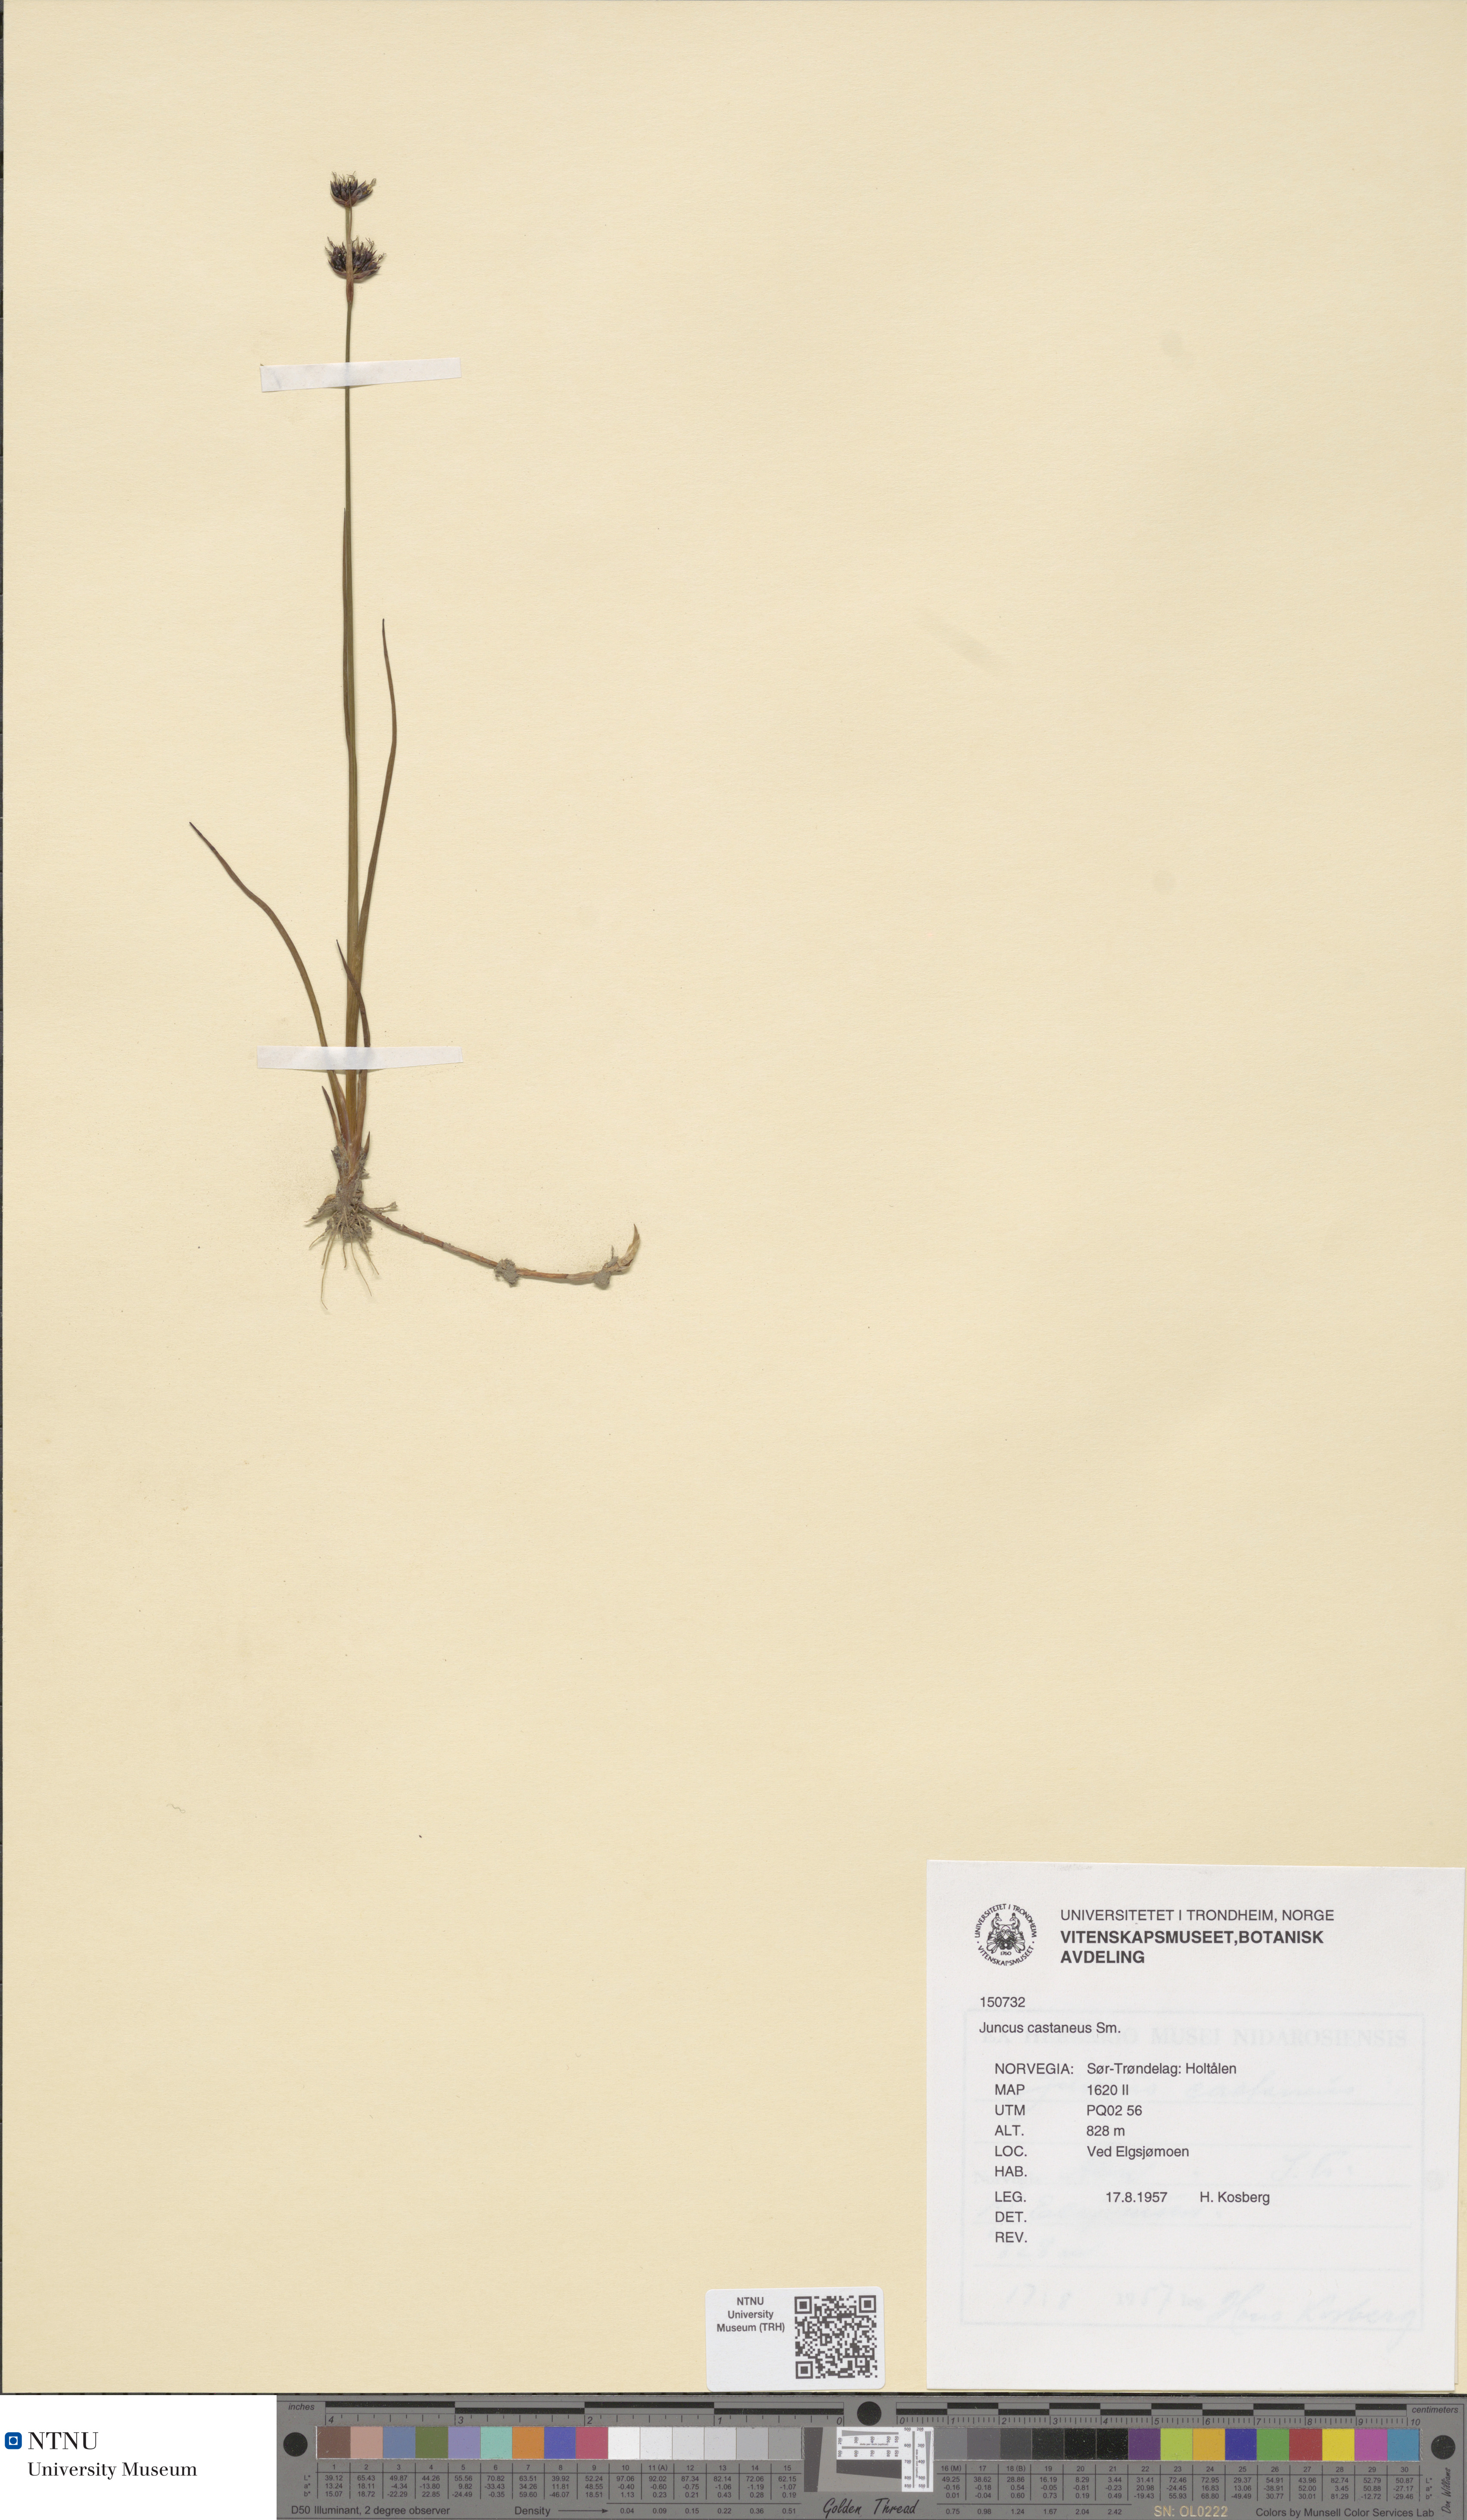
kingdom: Plantae
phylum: Tracheophyta
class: Liliopsida
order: Poales
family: Juncaceae
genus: Juncus
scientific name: Juncus castaneus
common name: Chestnut rush
